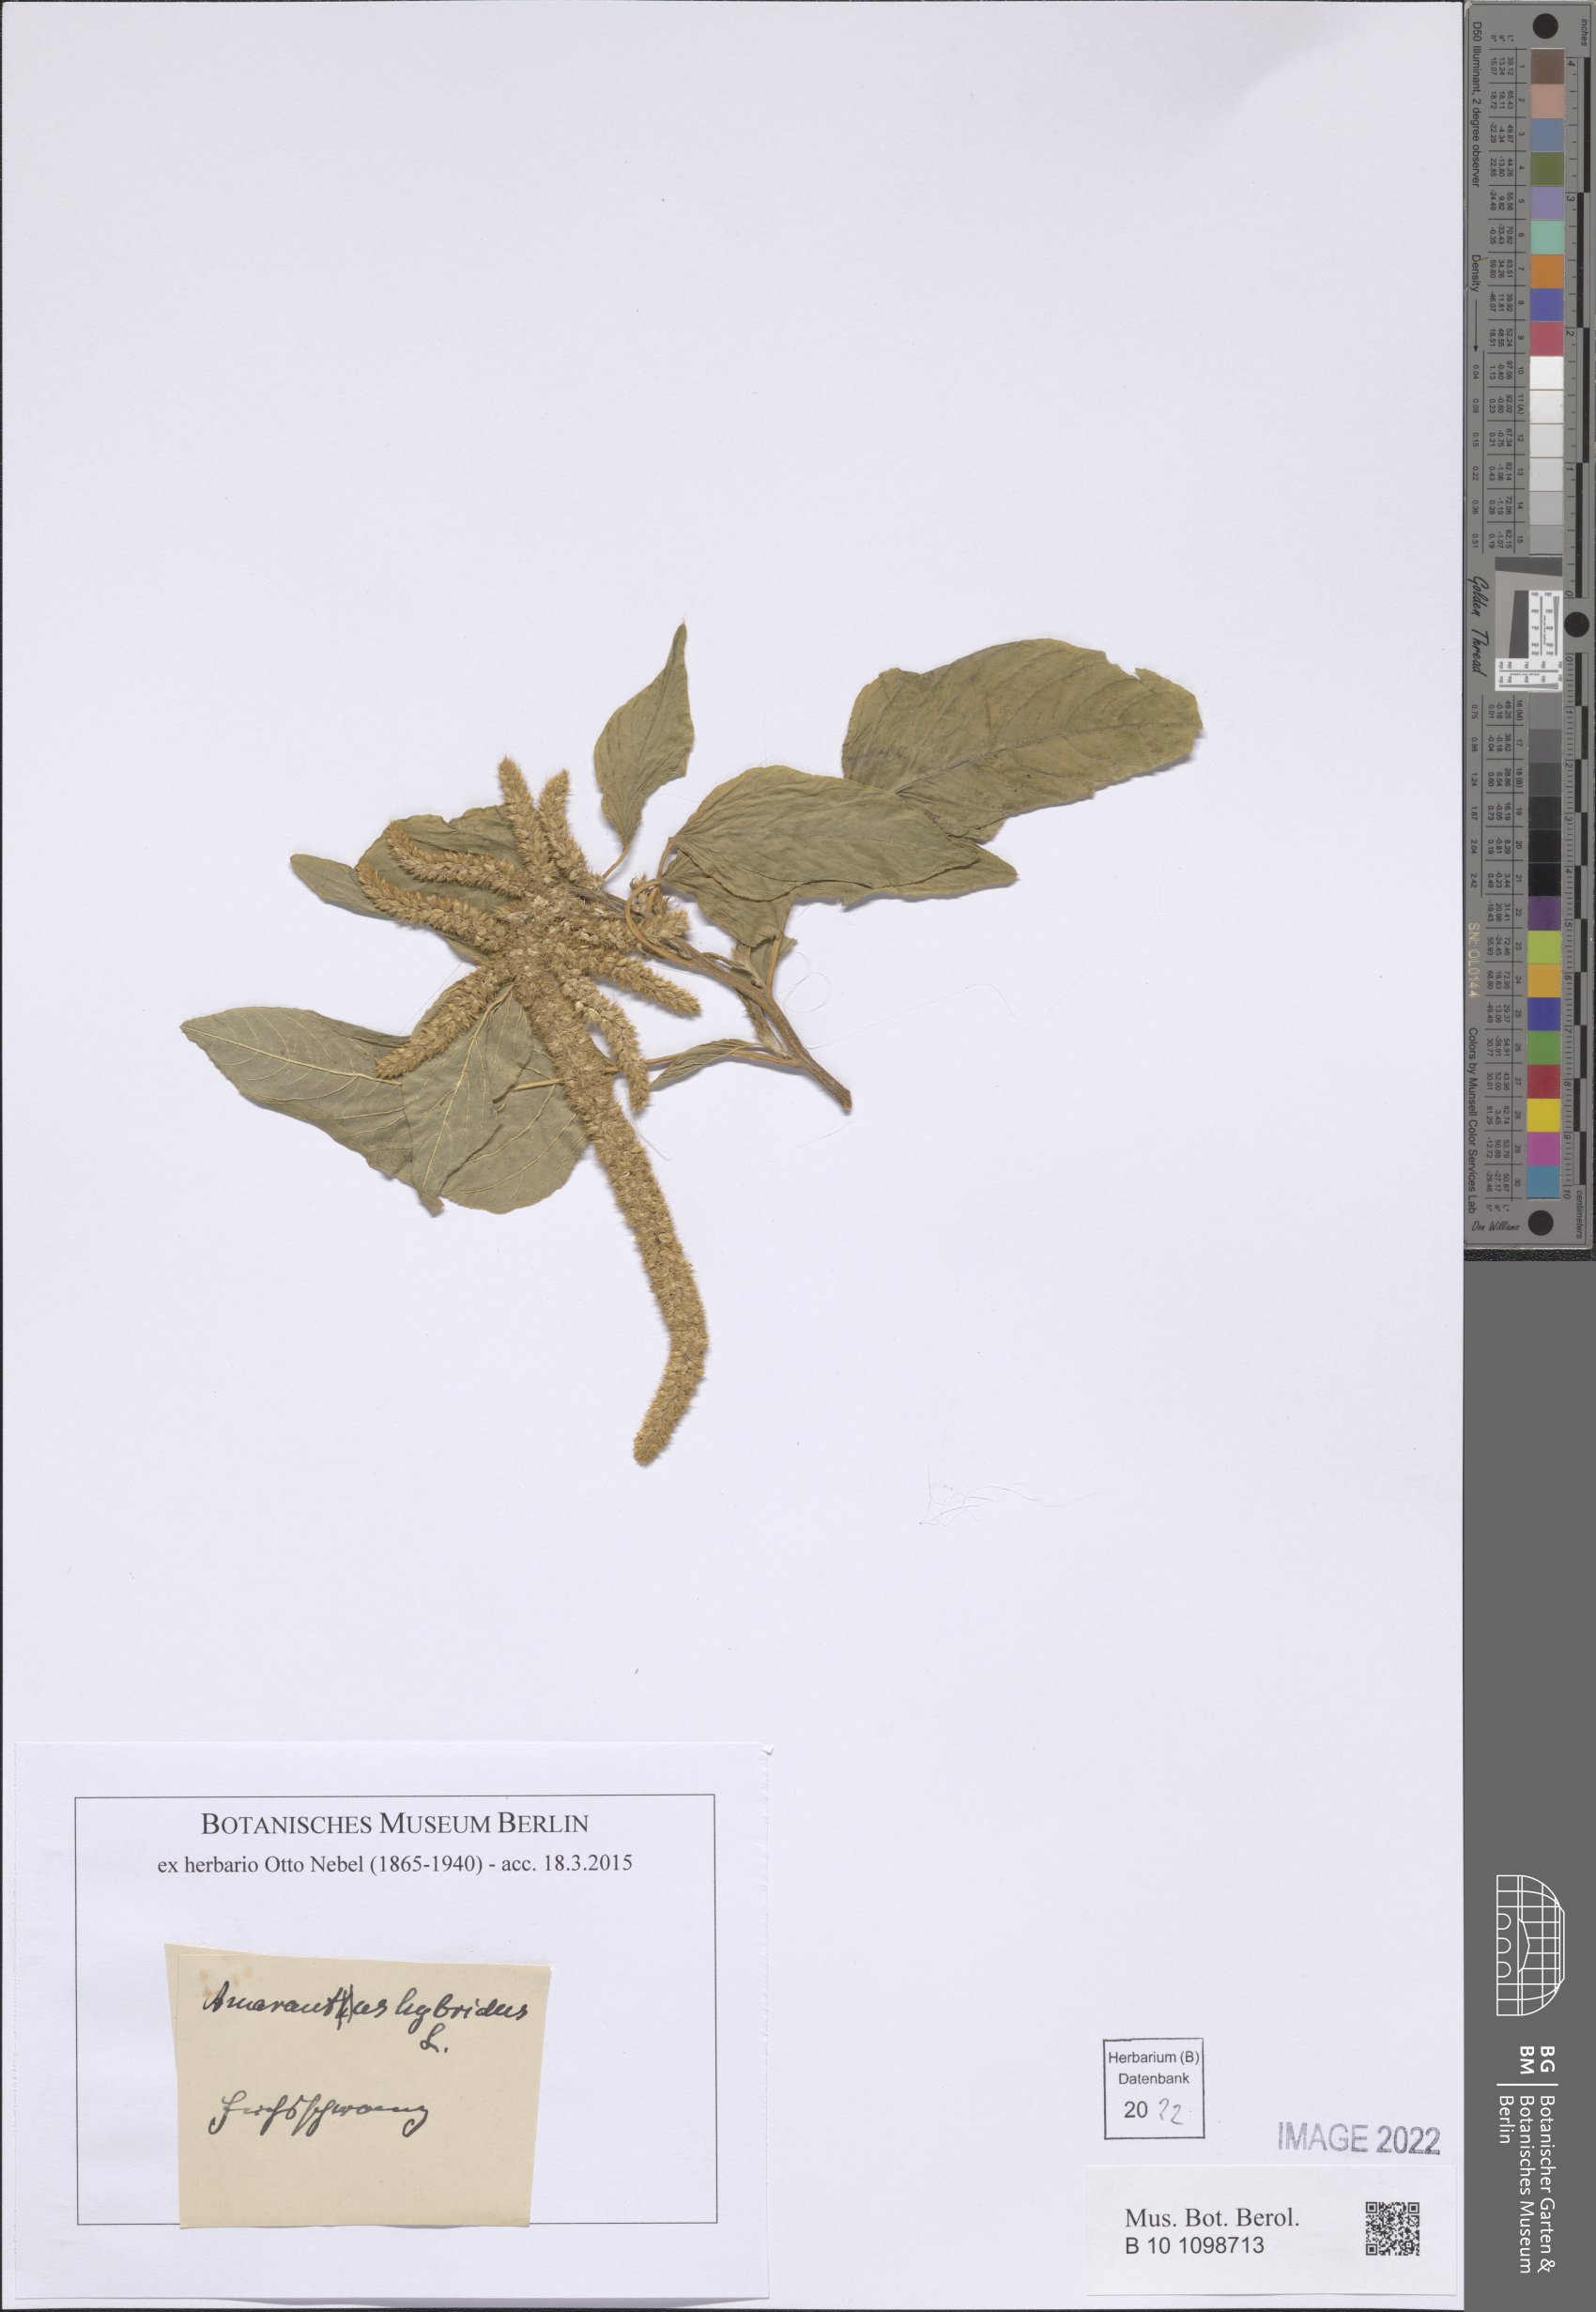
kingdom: Plantae
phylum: Tracheophyta
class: Magnoliopsida
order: Caryophyllales
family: Amaranthaceae
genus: Amaranthus
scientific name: Amaranthus hybridus
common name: Green amaranth
